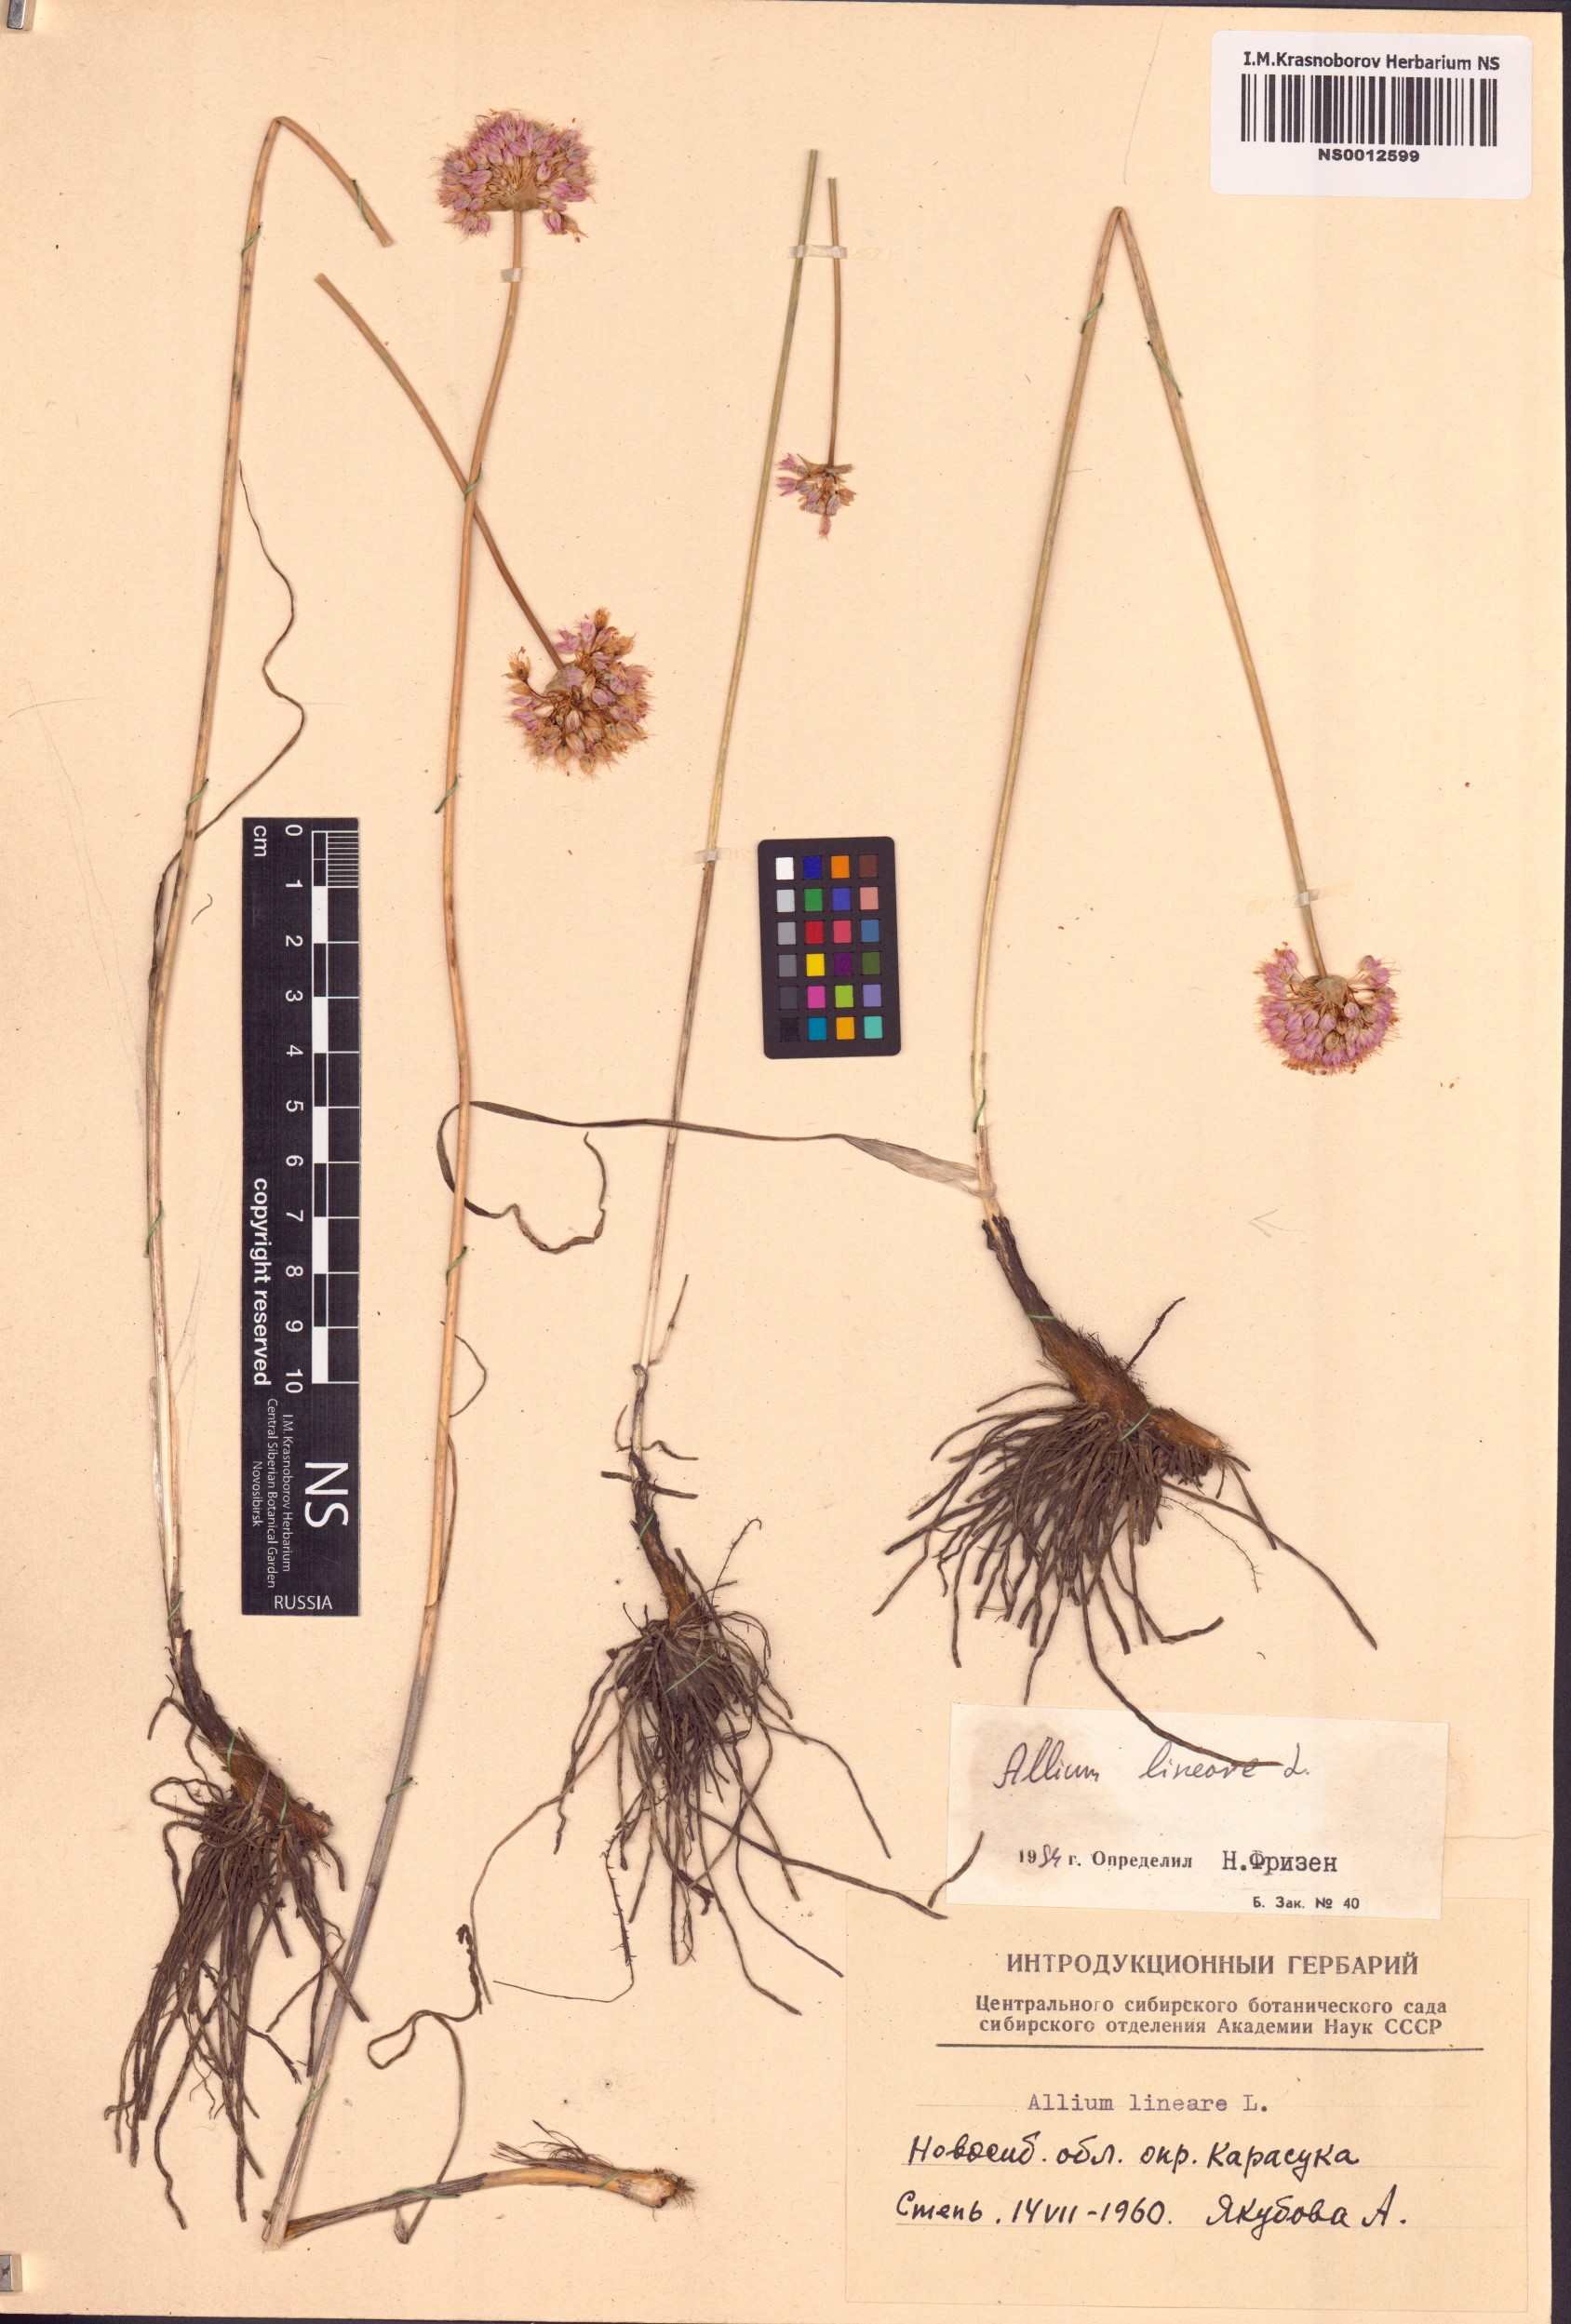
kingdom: Plantae
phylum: Tracheophyta
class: Liliopsida
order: Asparagales
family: Amaryllidaceae
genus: Allium
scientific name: Allium lineare
